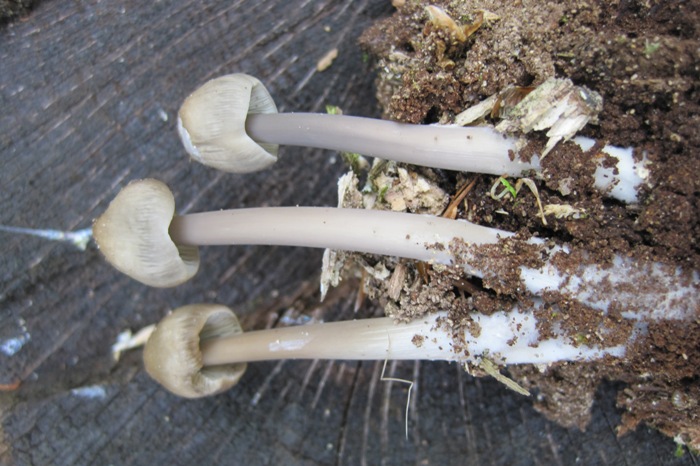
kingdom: Fungi
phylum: Basidiomycota
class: Agaricomycetes
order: Agaricales
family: Mycenaceae
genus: Mycena
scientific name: Mycena galericulata
